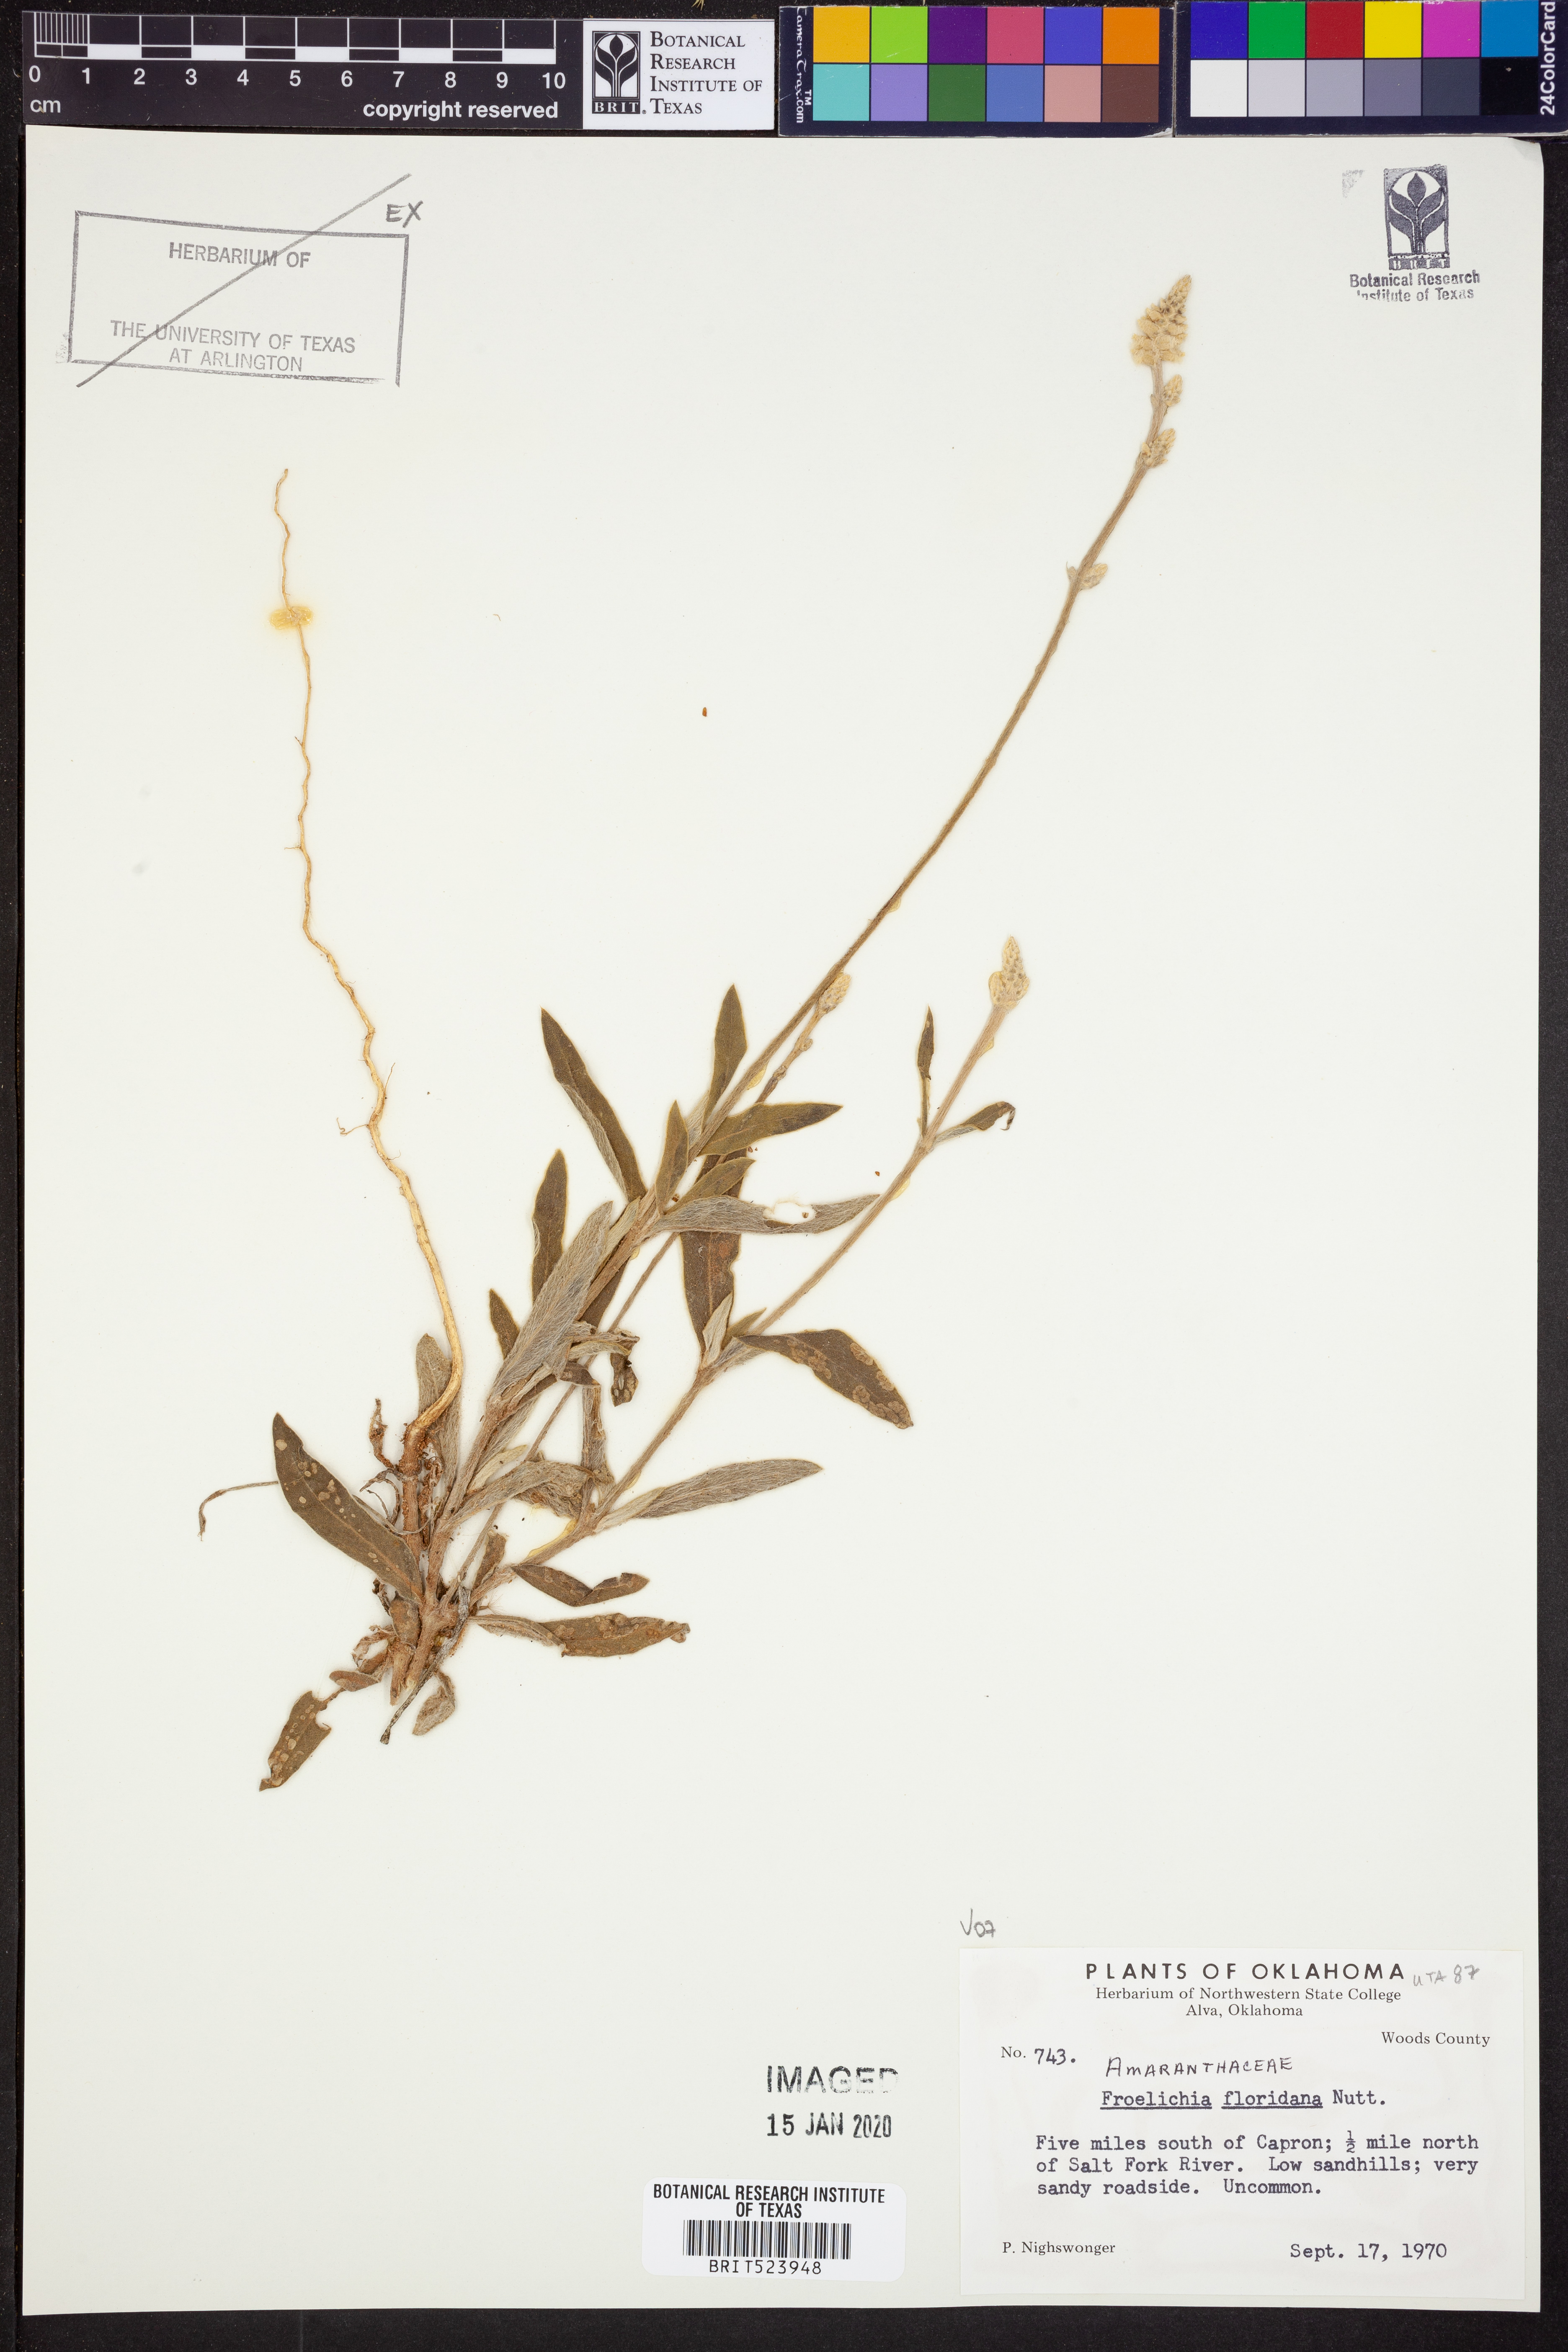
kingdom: Plantae
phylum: Tracheophyta
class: Magnoliopsida
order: Caryophyllales
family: Amaranthaceae
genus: Froelichia
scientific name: Froelichia floridana
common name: Florida snake-cotton
